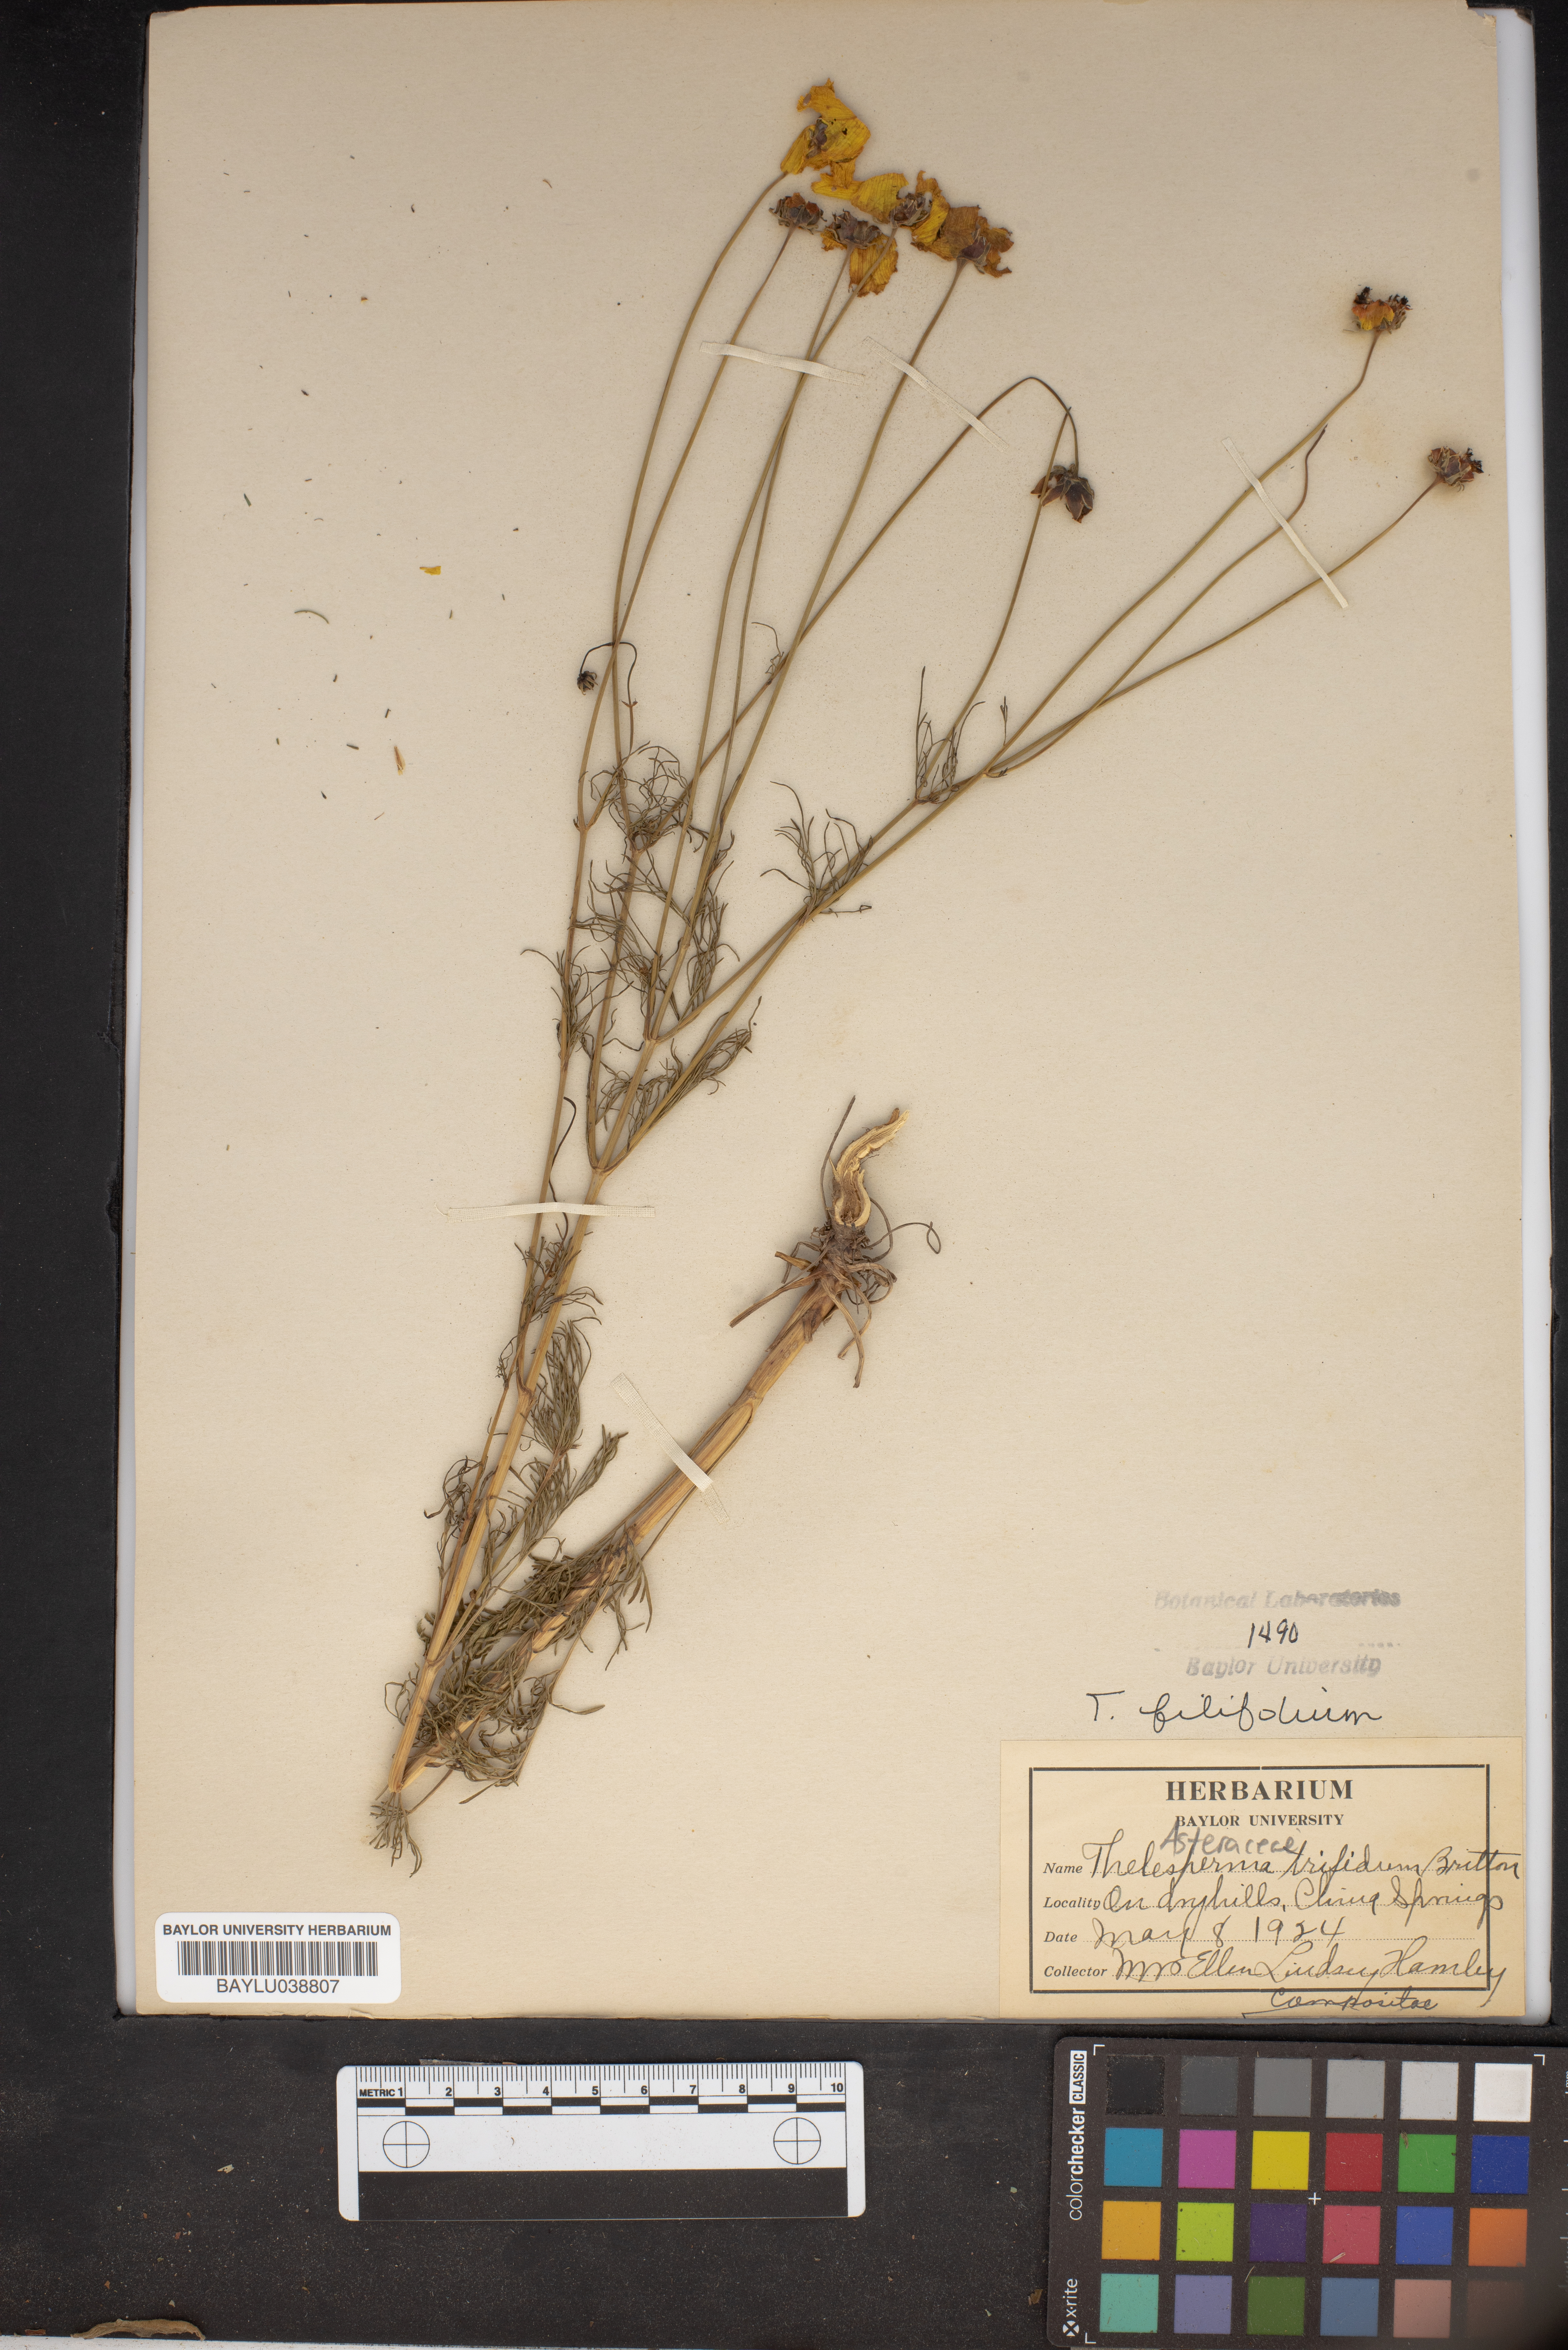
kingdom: Plantae
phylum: Tracheophyta
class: Magnoliopsida
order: Asterales
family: Asteraceae
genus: Thelesperma
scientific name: Thelesperma filifolium
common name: Stiff greenthread
